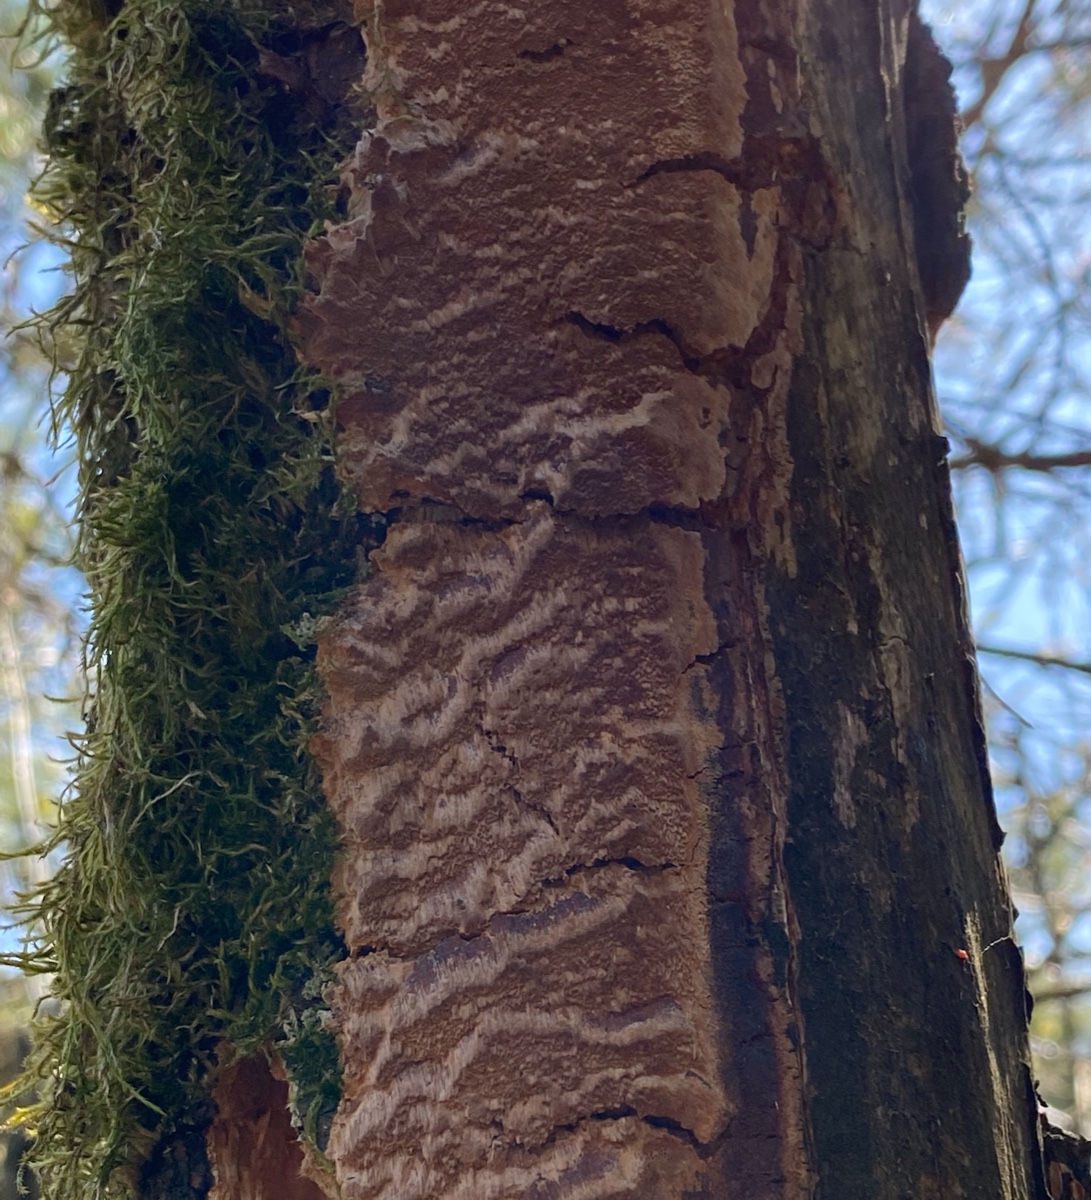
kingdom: Fungi
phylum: Basidiomycota
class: Agaricomycetes
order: Hymenochaetales
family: Hymenochaetaceae
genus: Fuscoporia
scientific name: Fuscoporia ferrea
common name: skorpe-ildporesvamp
